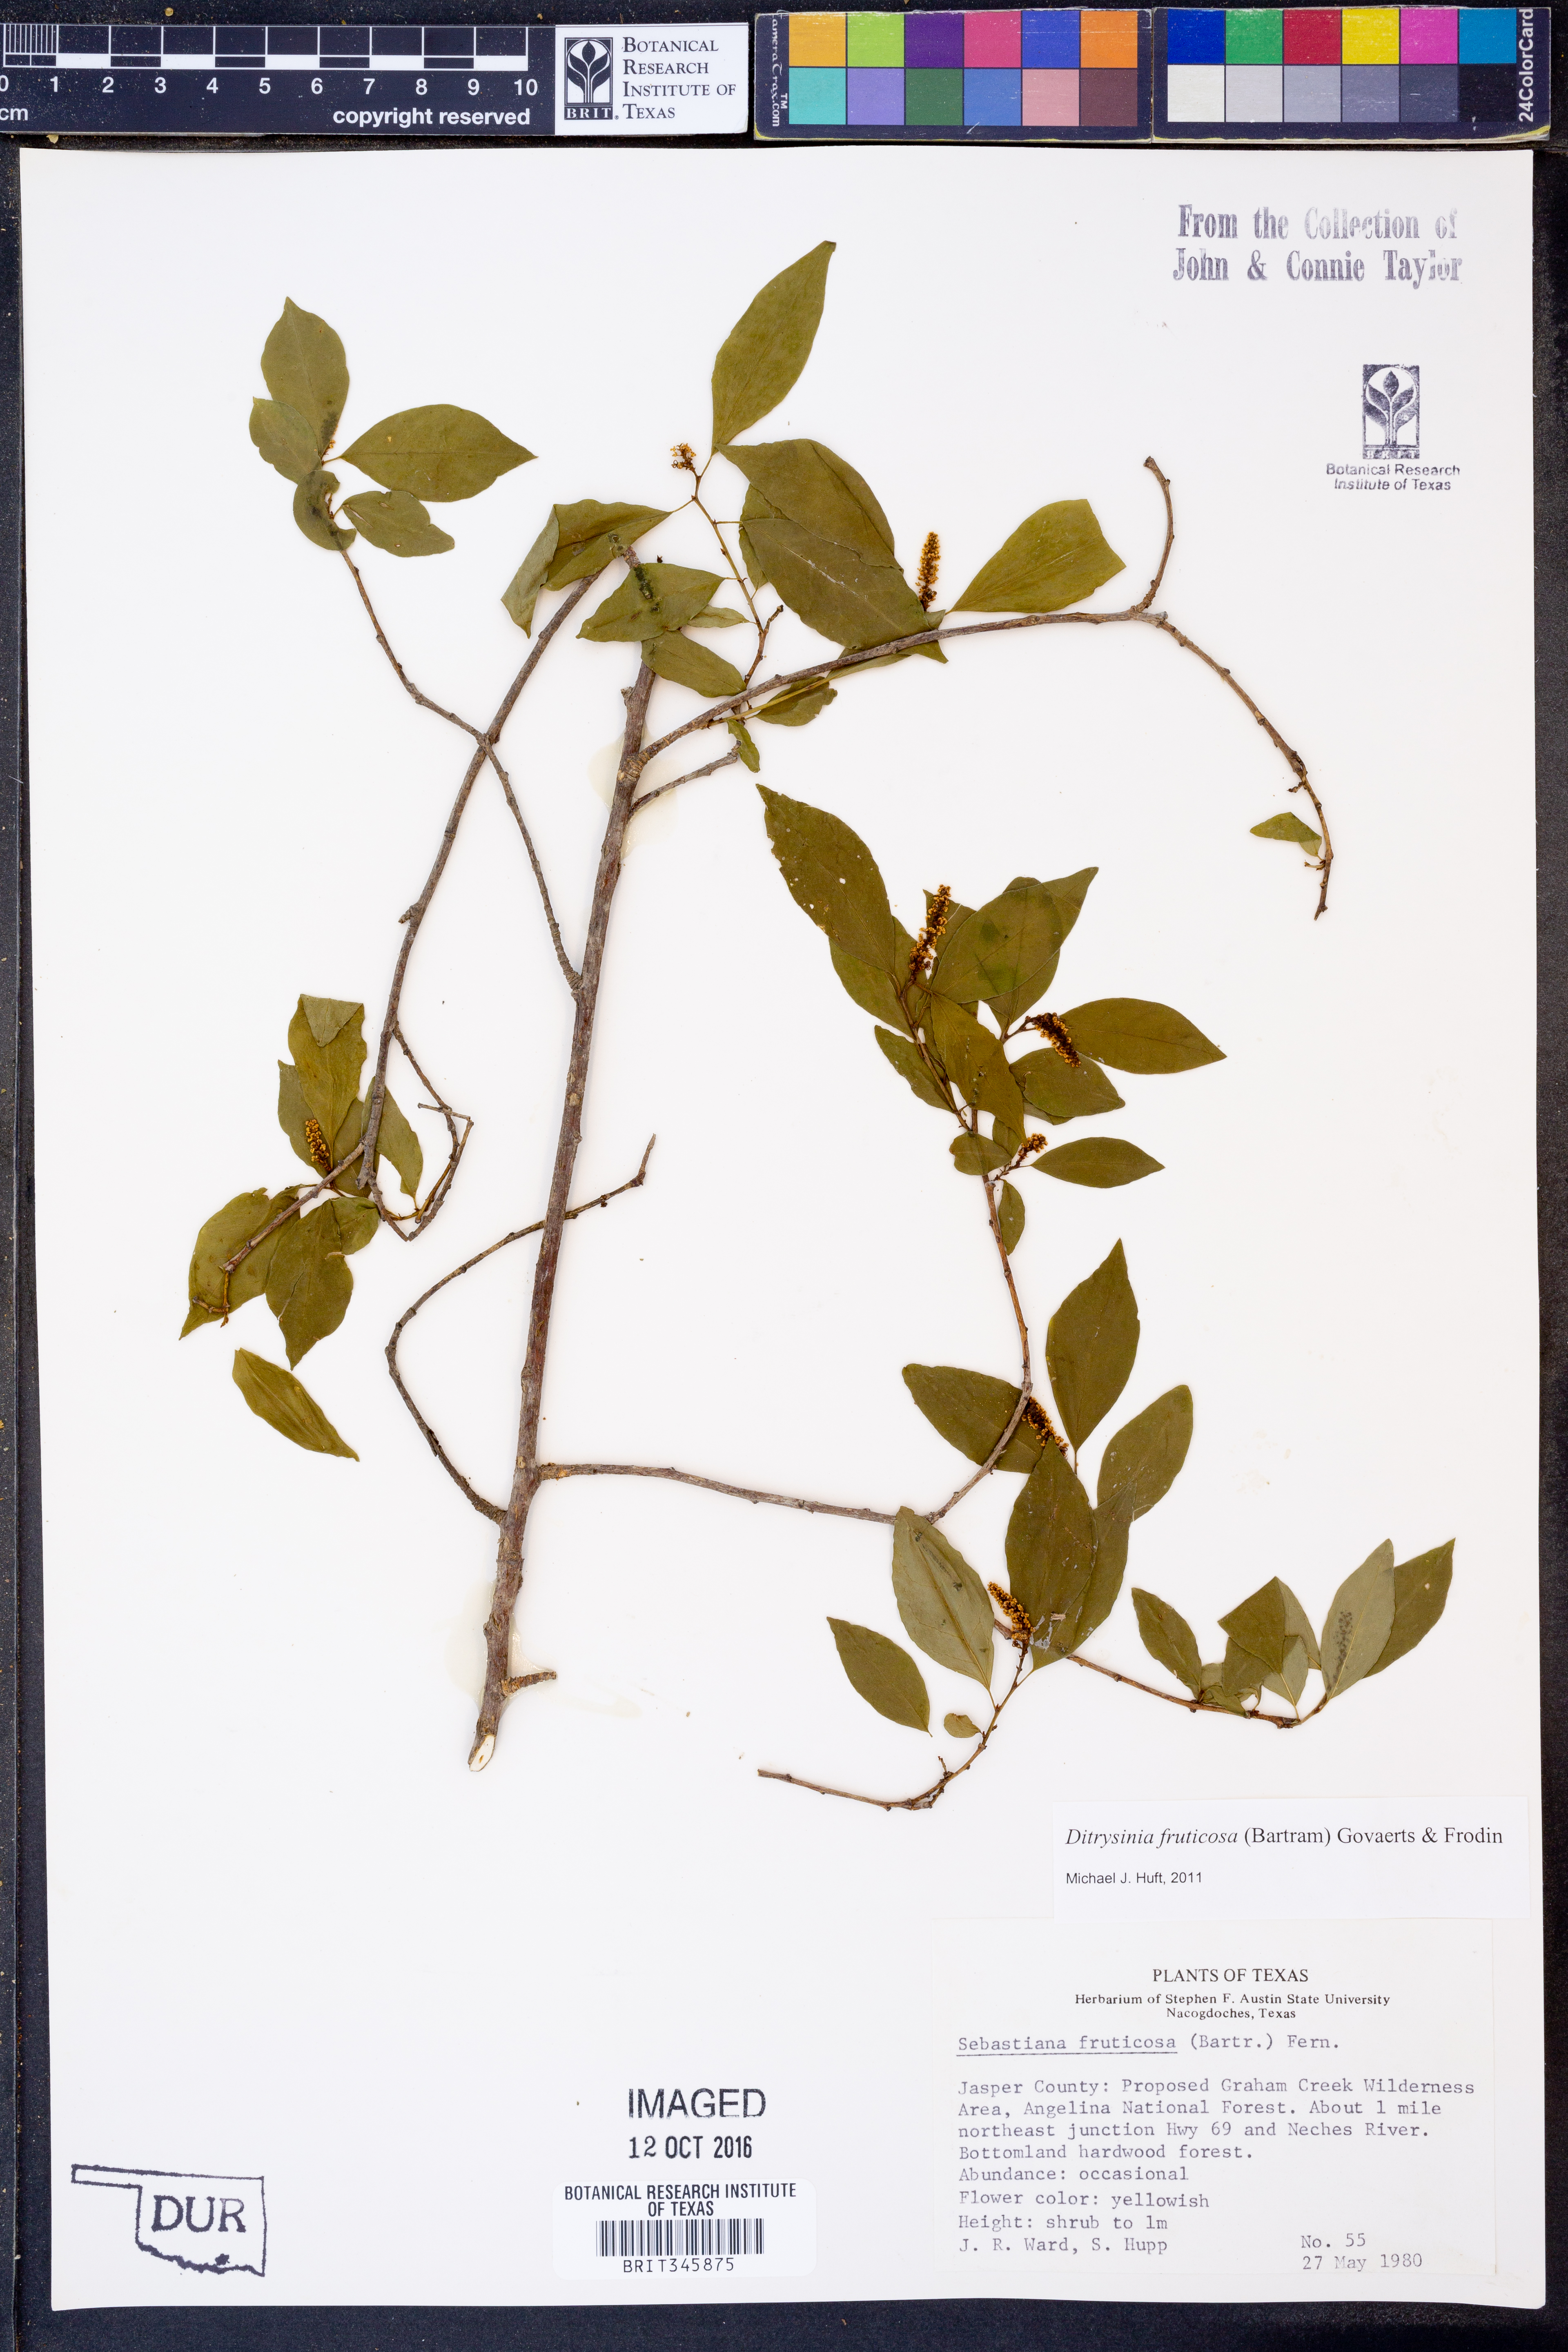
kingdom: Plantae
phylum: Tracheophyta
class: Magnoliopsida
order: Malpighiales
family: Euphorbiaceae
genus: Ditrysinia
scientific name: Ditrysinia fruticosa
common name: Gulf sebastian-bush
